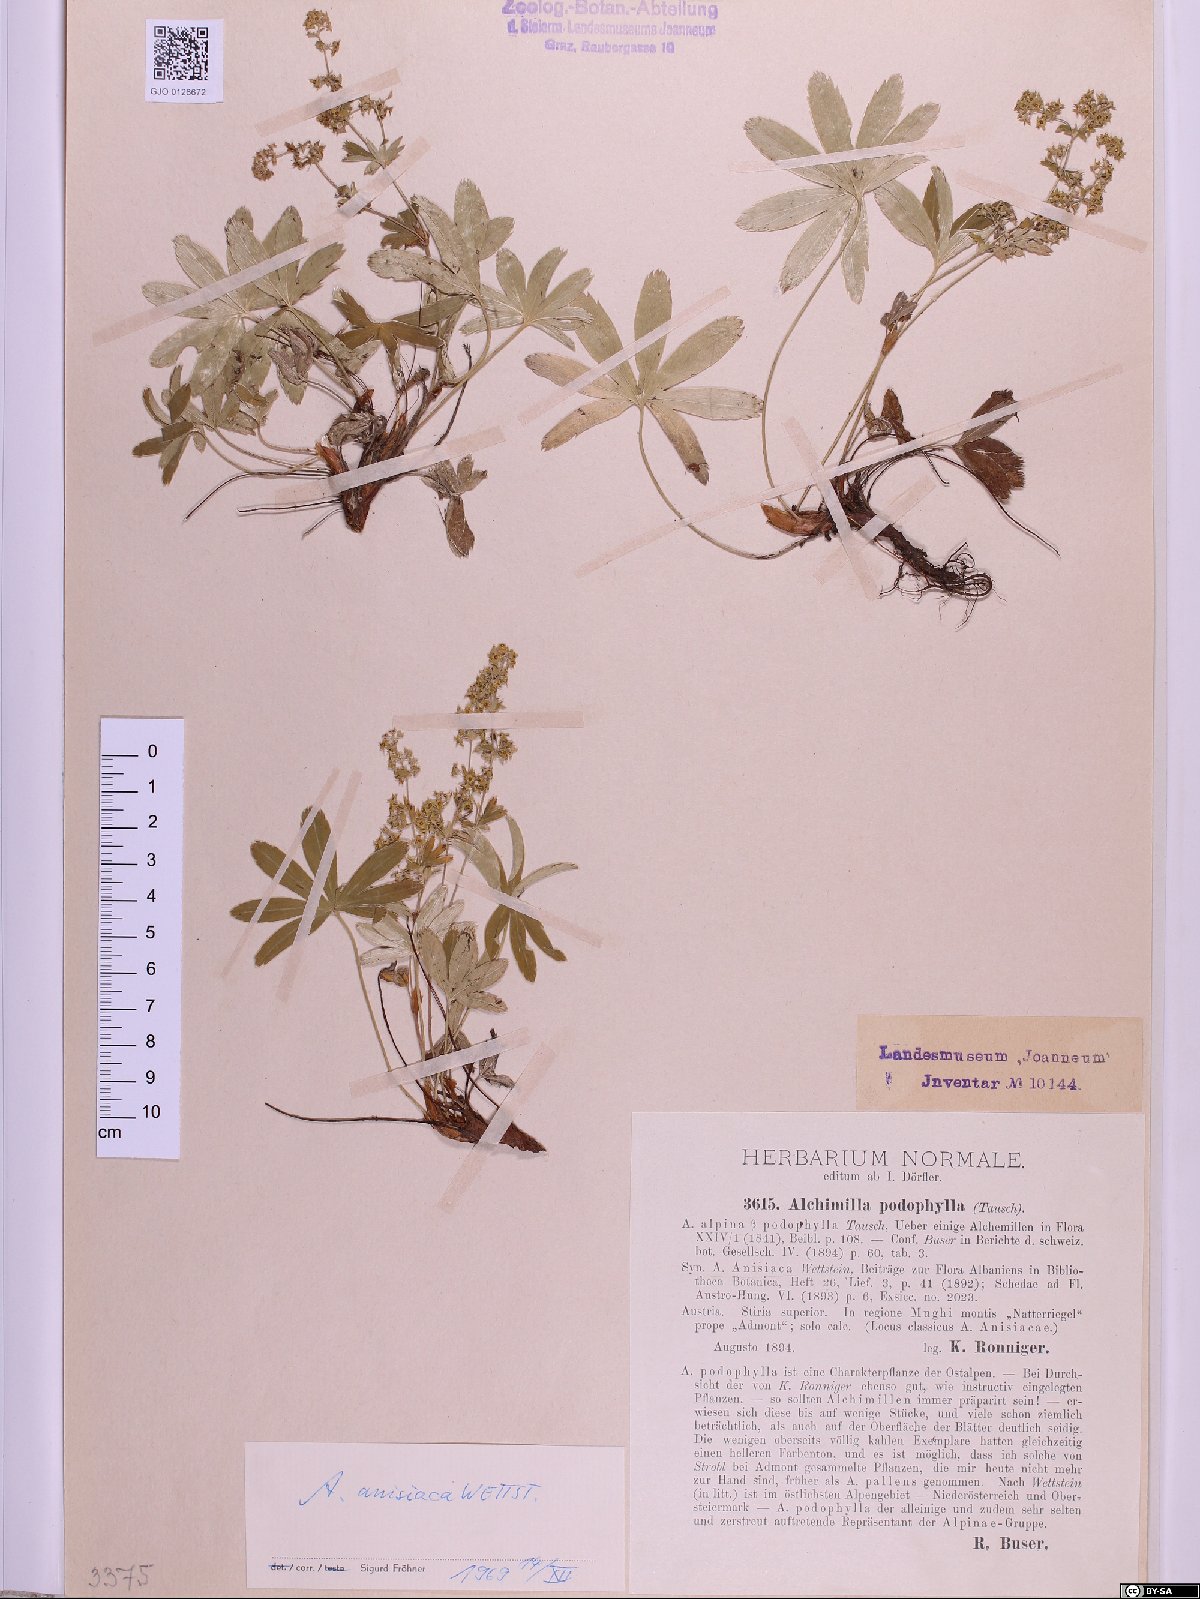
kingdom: Plantae
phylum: Tracheophyta
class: Magnoliopsida
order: Rosales
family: Rosaceae
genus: Alchemilla
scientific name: Alchemilla anisiaca
